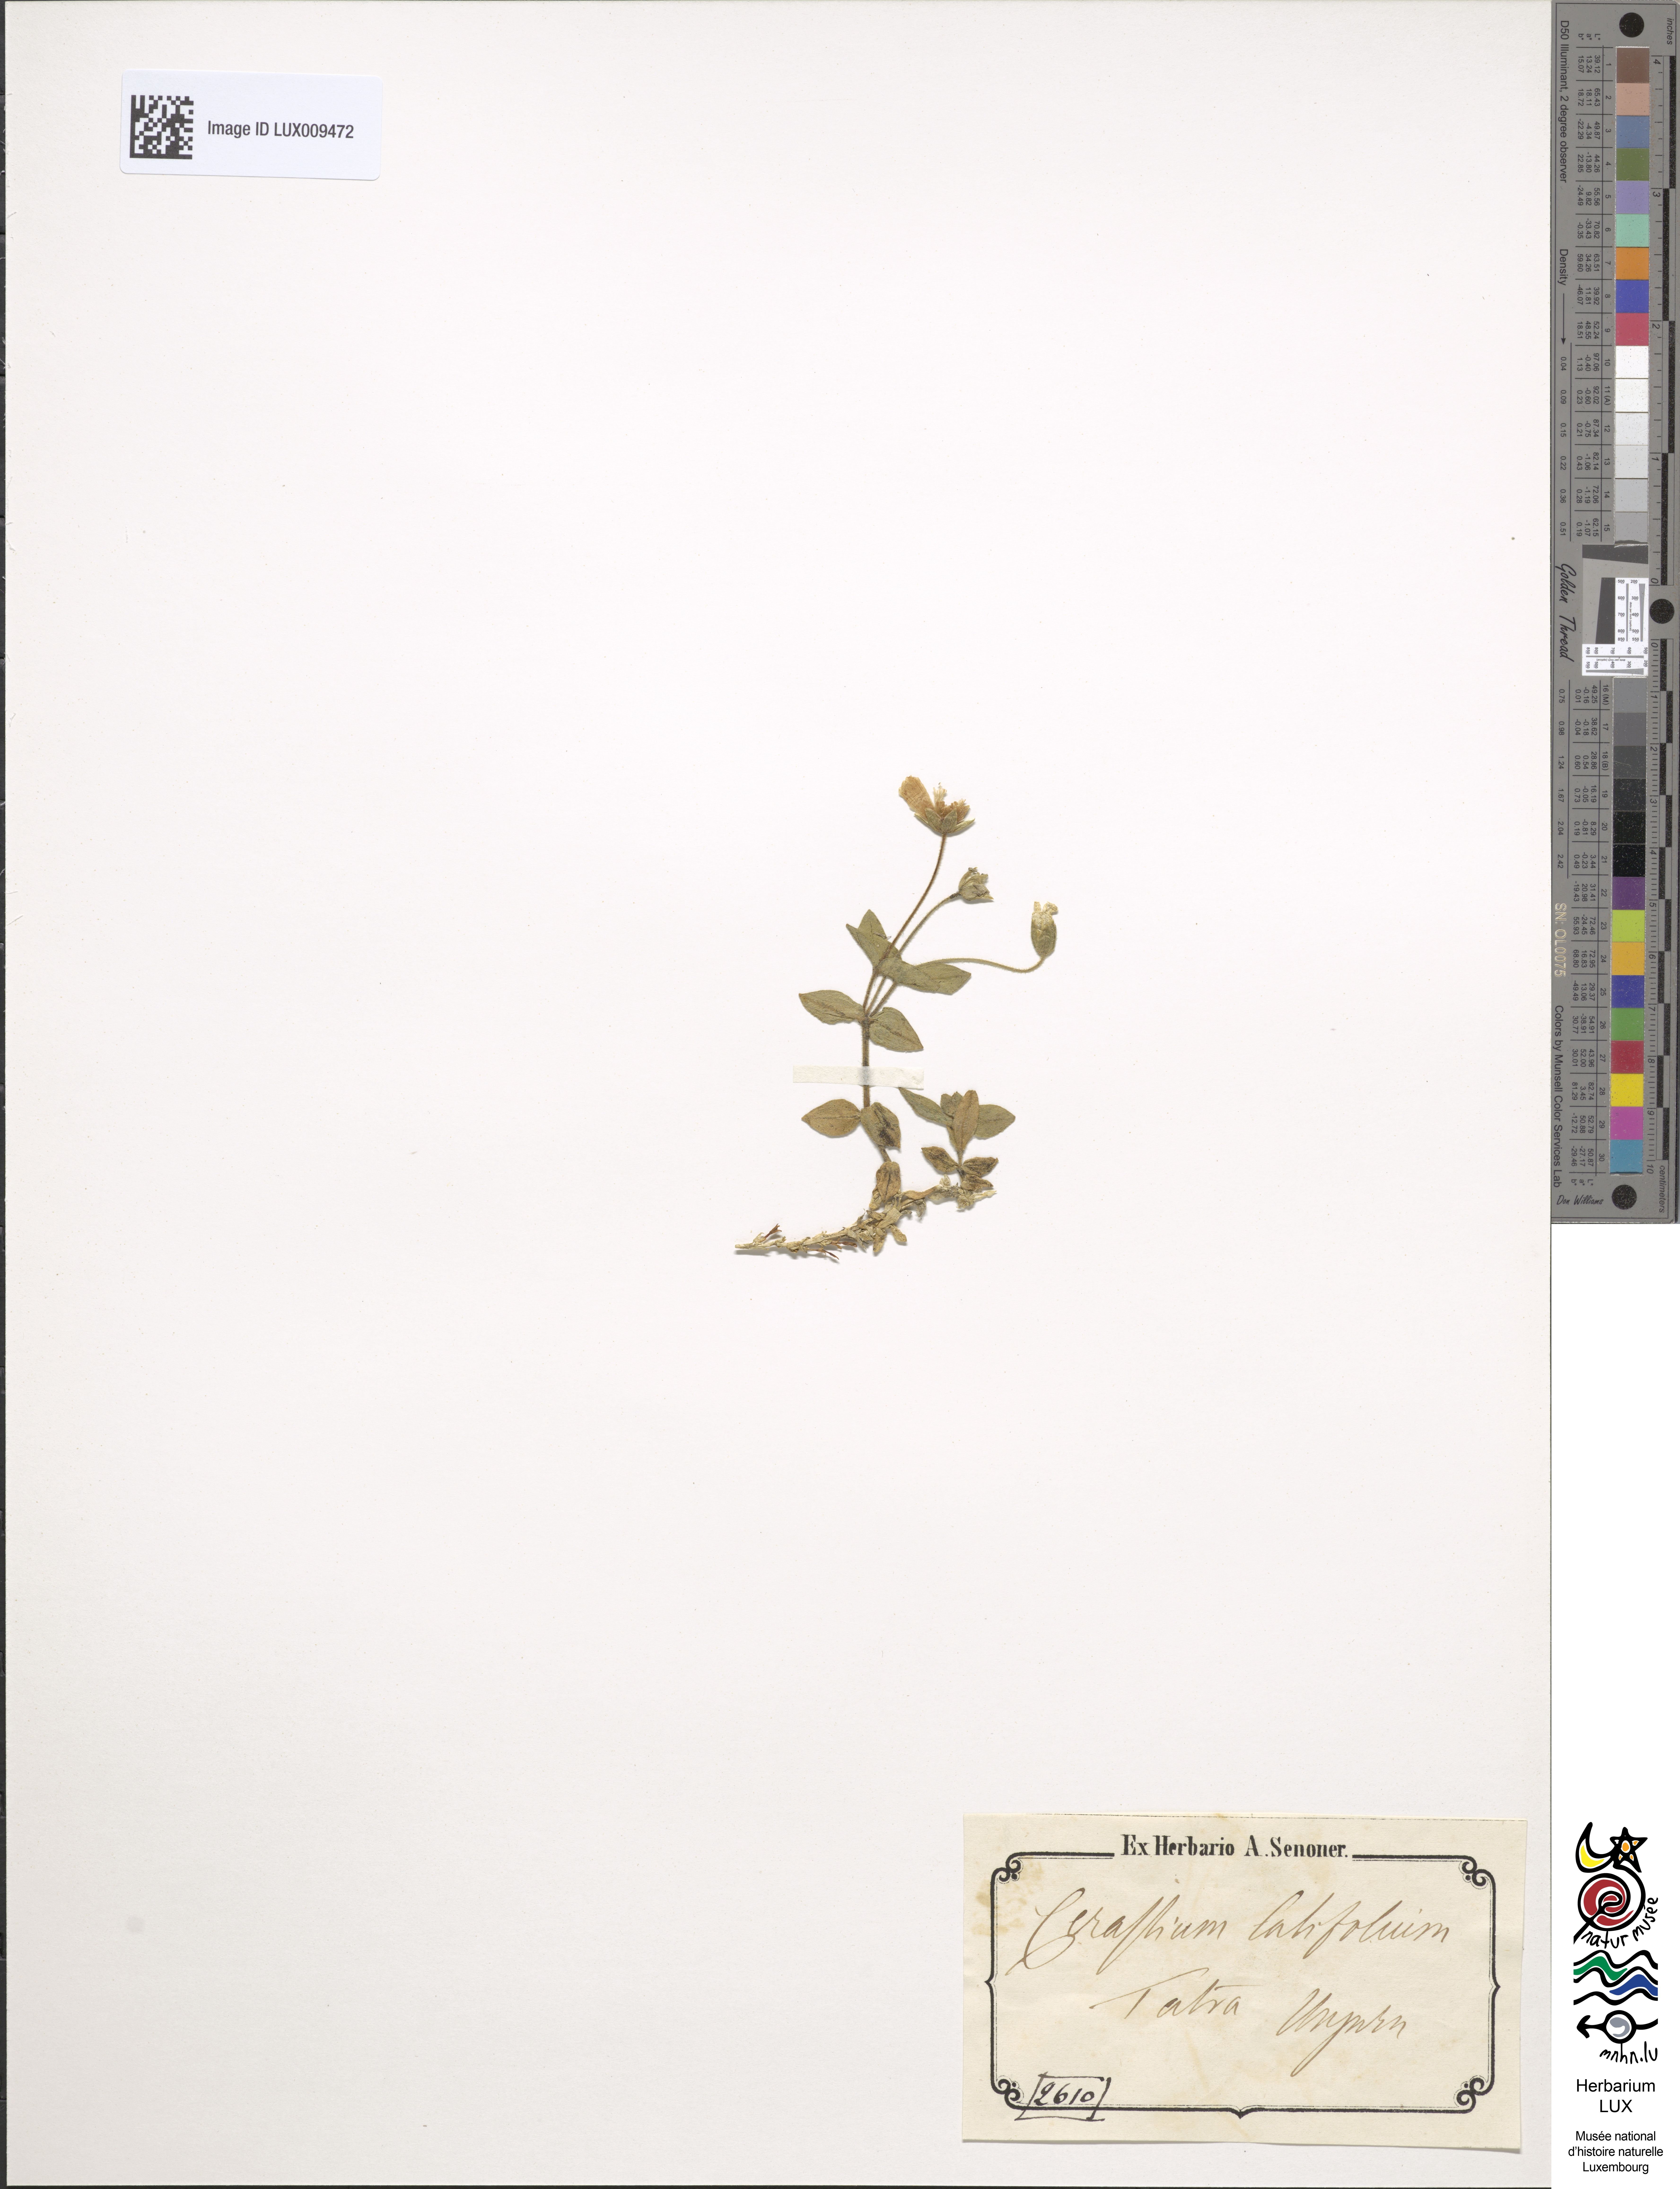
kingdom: Plantae
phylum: Tracheophyta
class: Magnoliopsida
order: Caryophyllales
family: Caryophyllaceae
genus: Cerastium
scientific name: Cerastium latifolium
